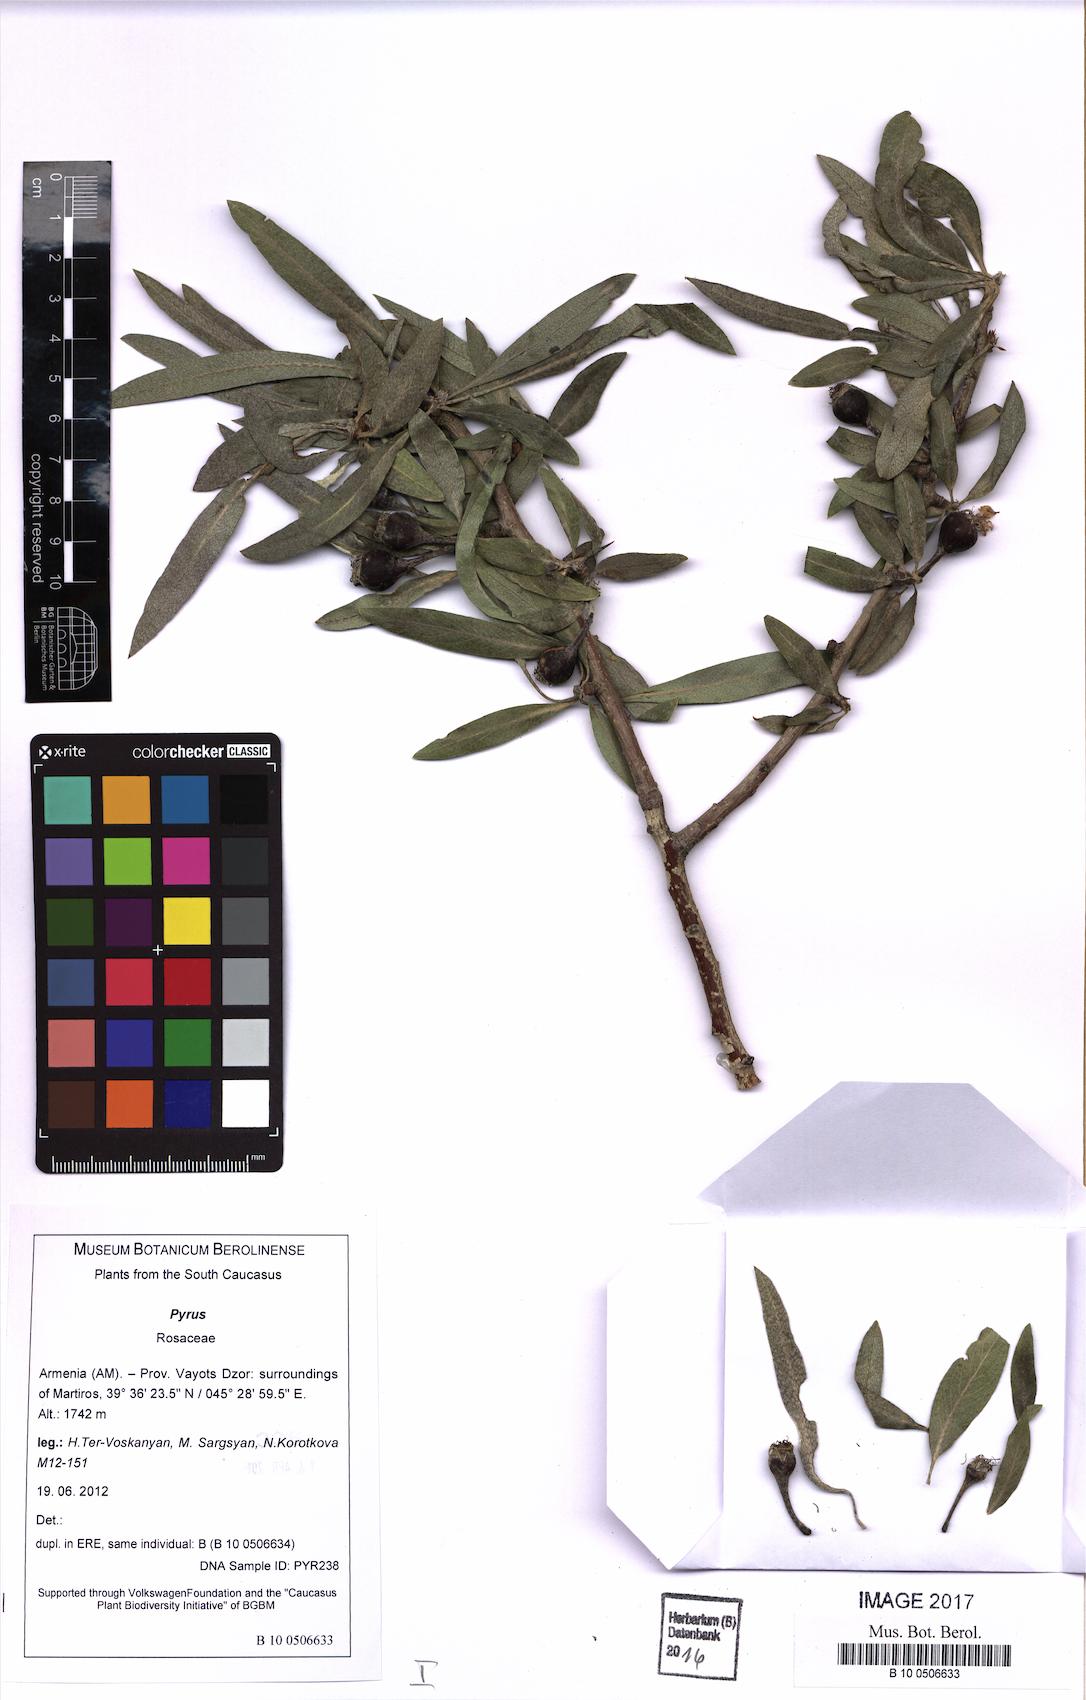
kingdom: Plantae
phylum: Tracheophyta
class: Magnoliopsida
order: Rosales
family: Rosaceae
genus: Pyrus
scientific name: Pyrus
